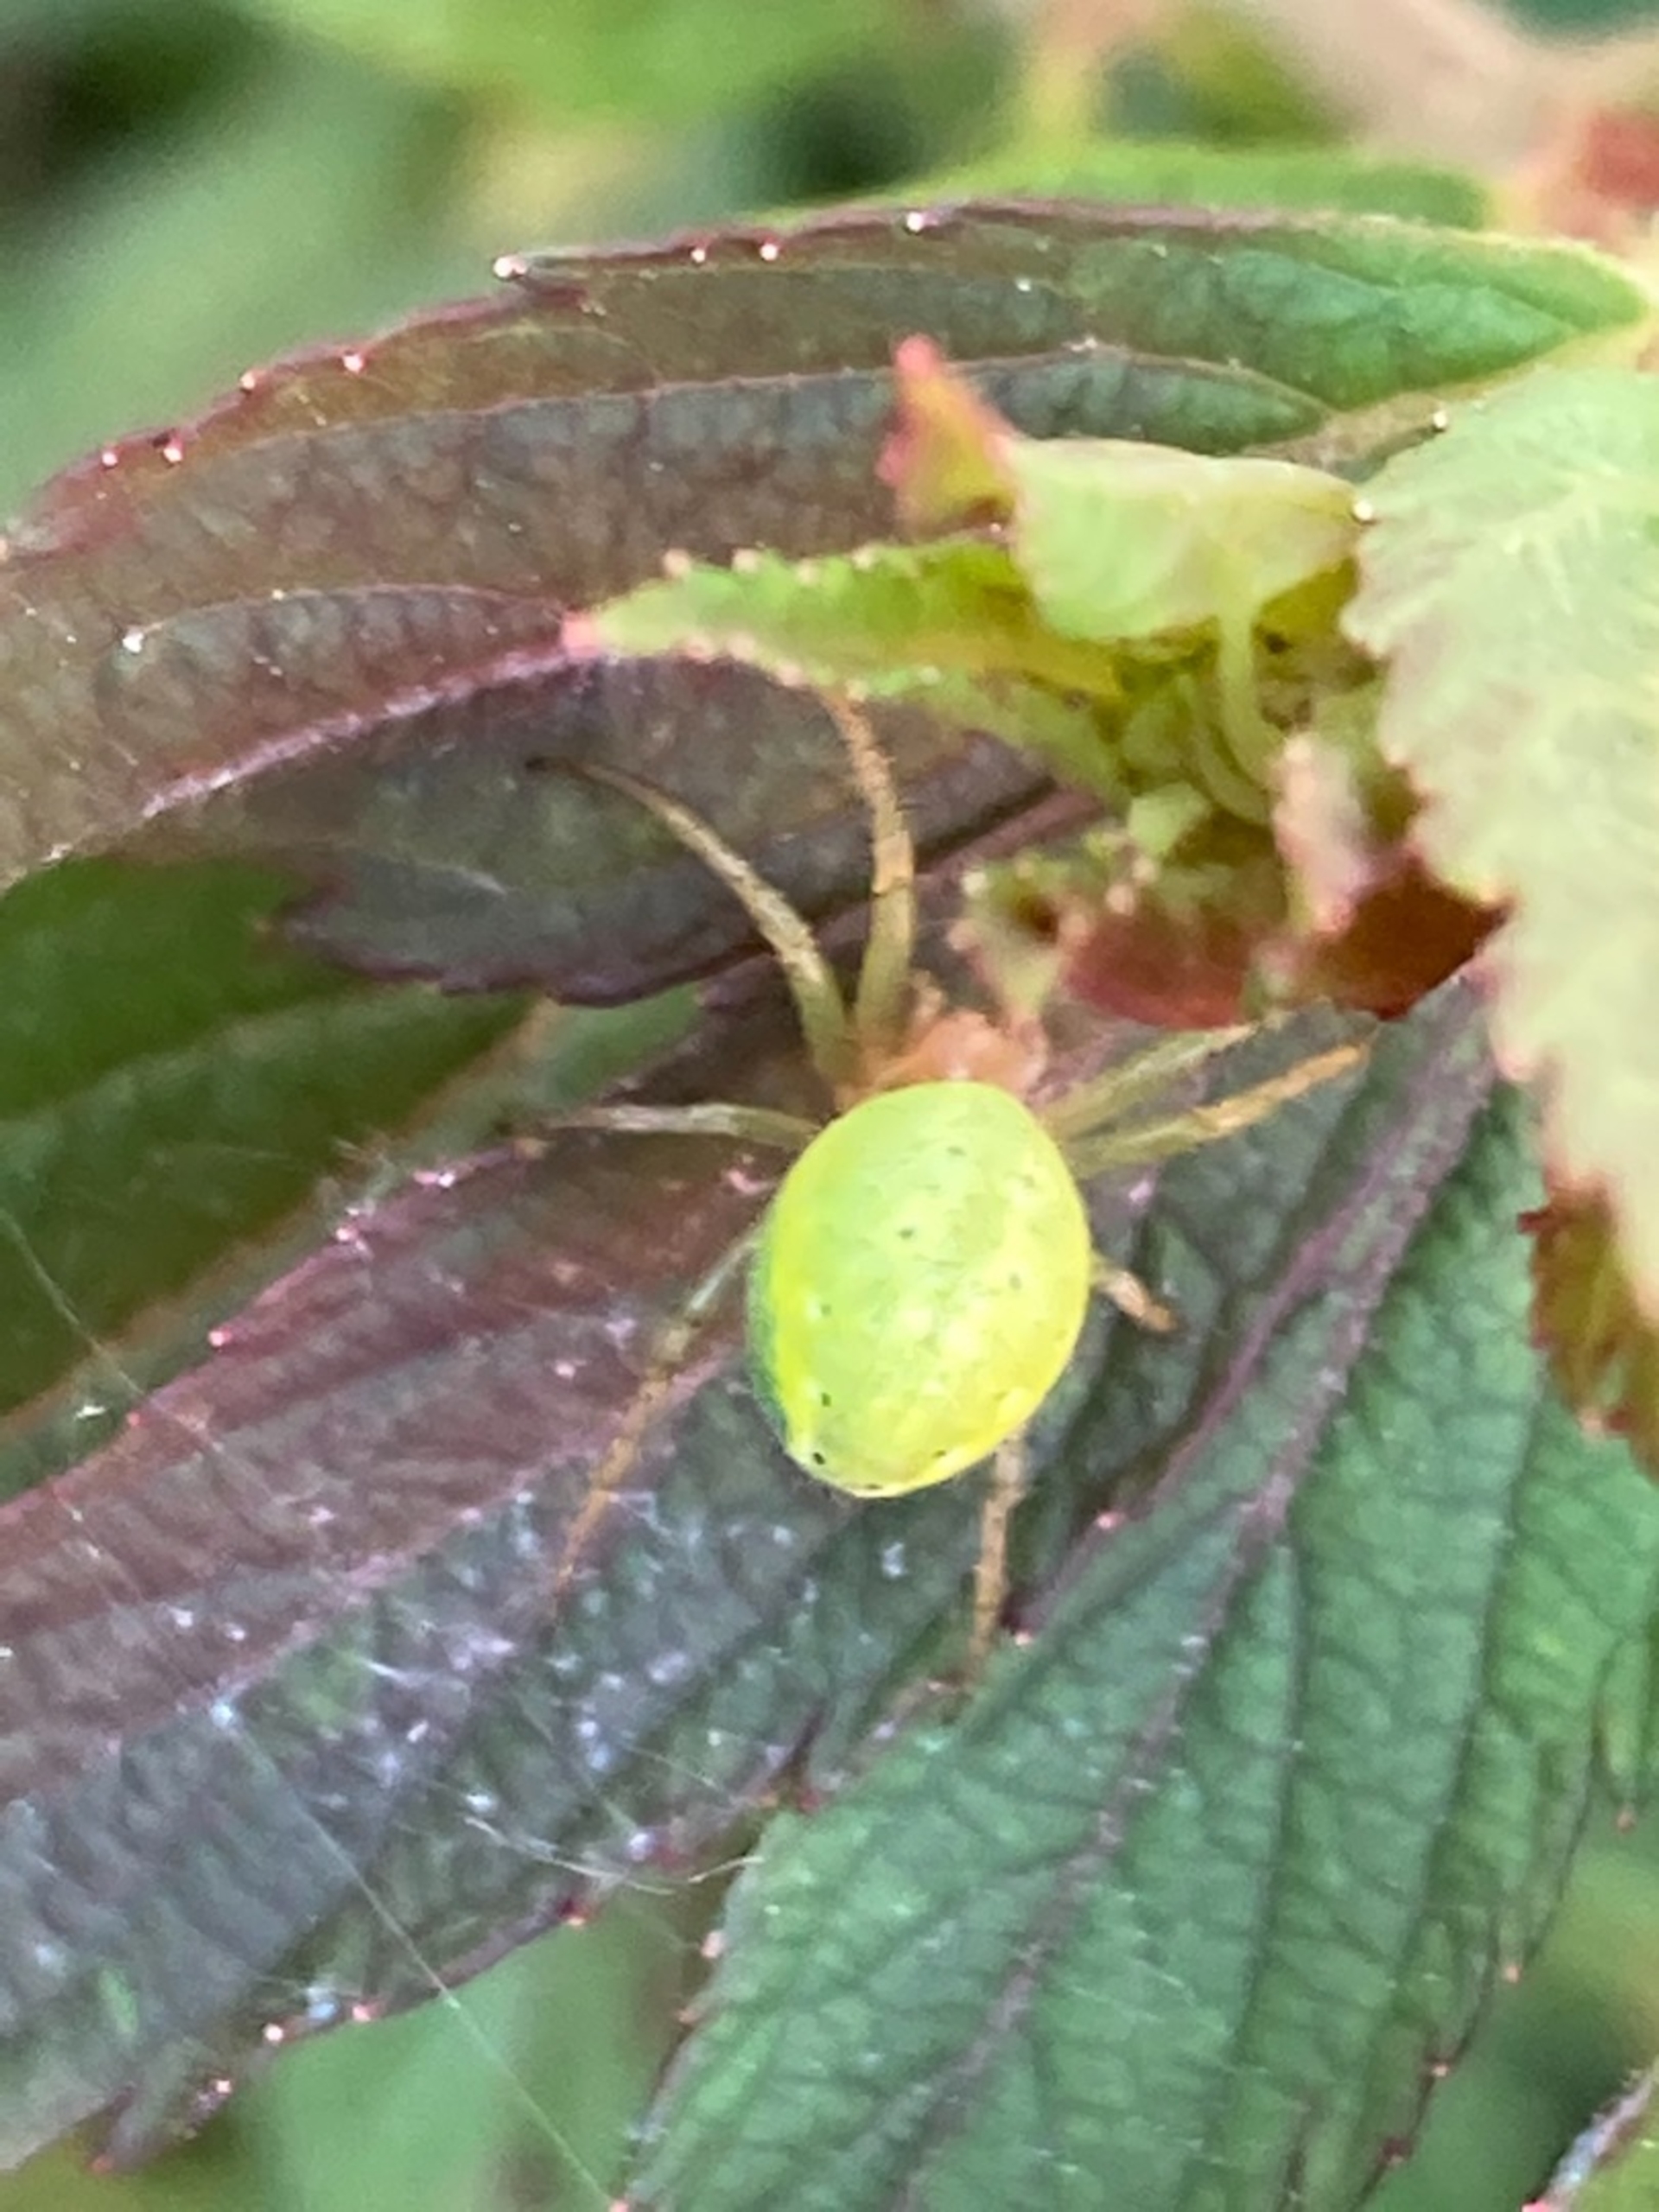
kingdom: Animalia
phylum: Arthropoda
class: Arachnida
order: Araneae
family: Araneidae
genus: Araniella
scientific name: Araniella
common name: Agurkeedderkopslægten
